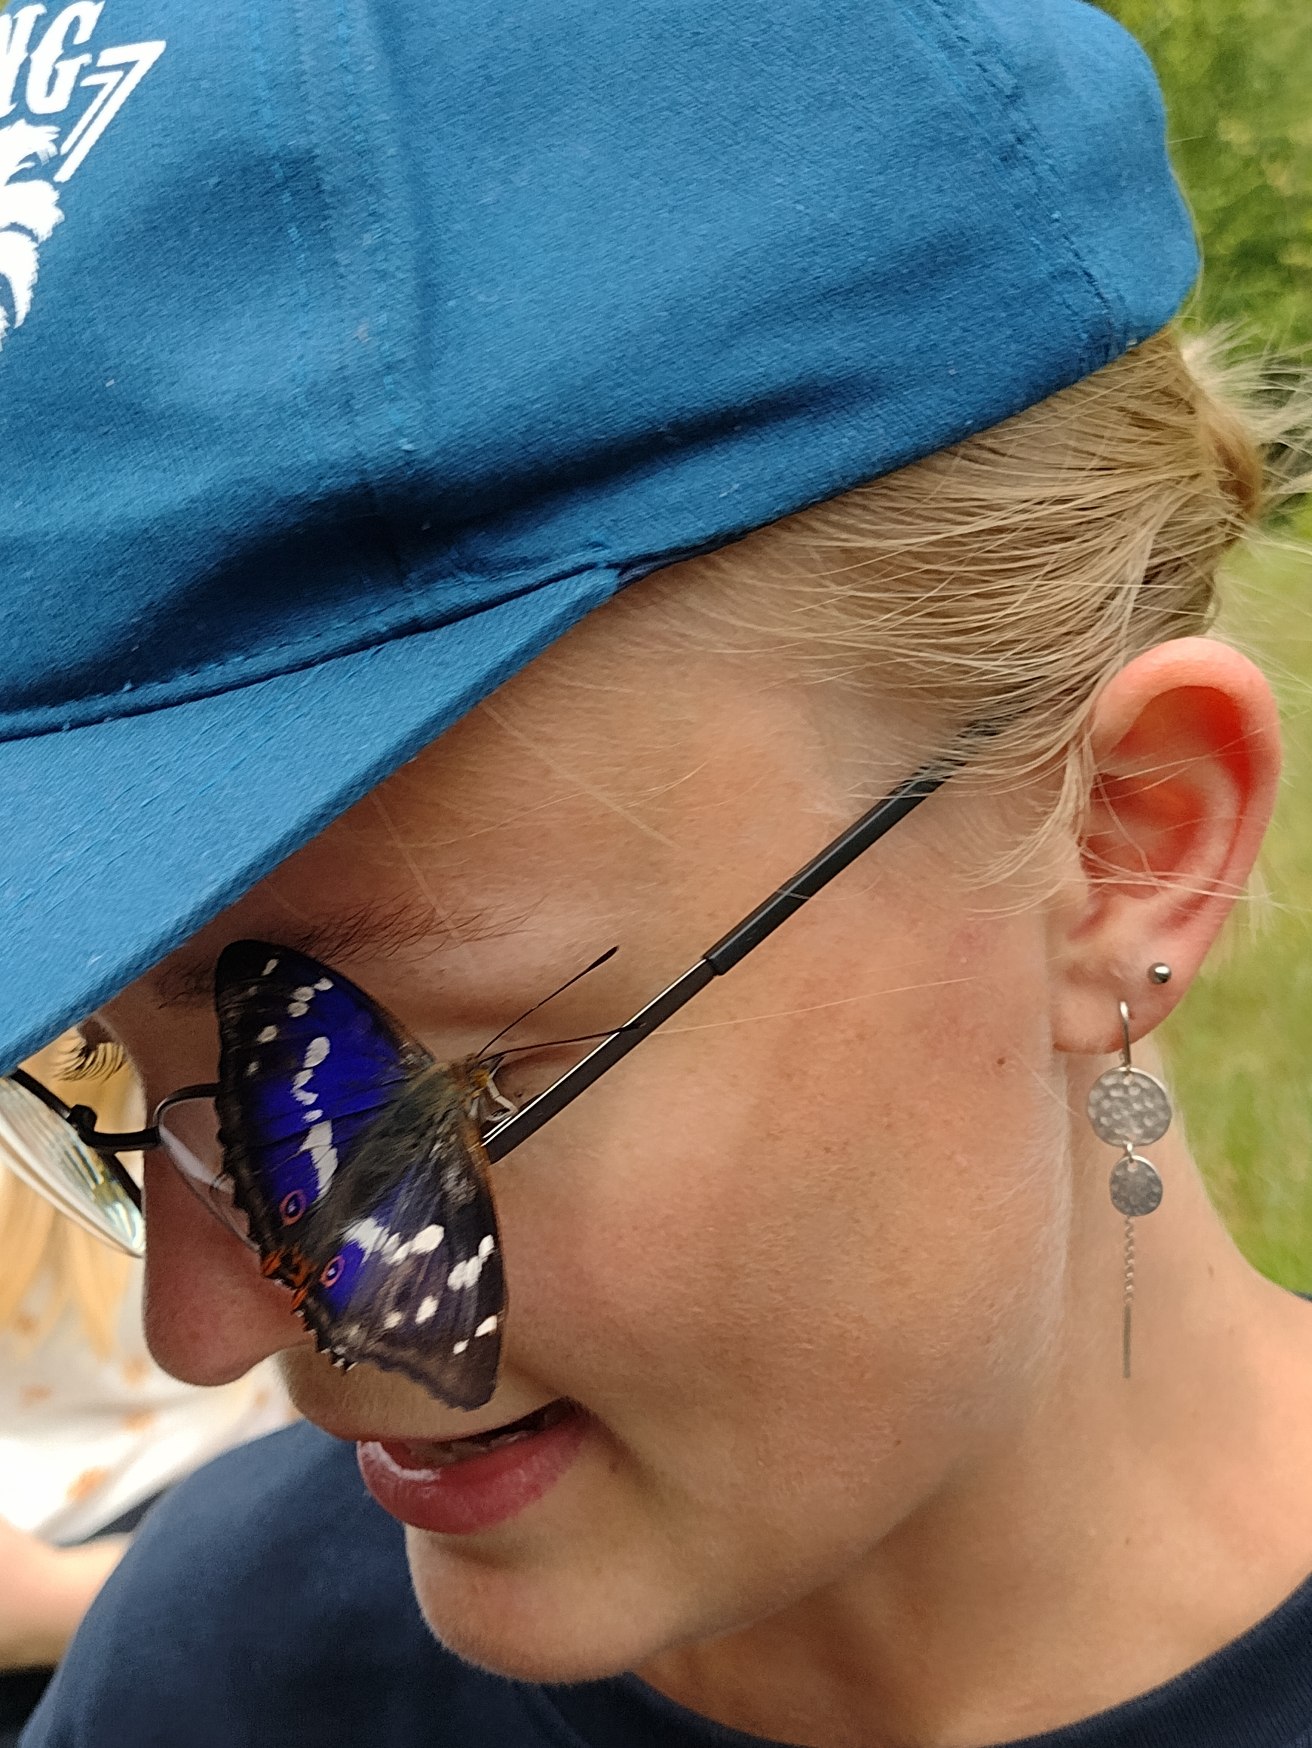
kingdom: Animalia
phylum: Arthropoda
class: Insecta
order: Lepidoptera
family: Nymphalidae
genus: Apatura
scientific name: Apatura iris
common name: Iris
